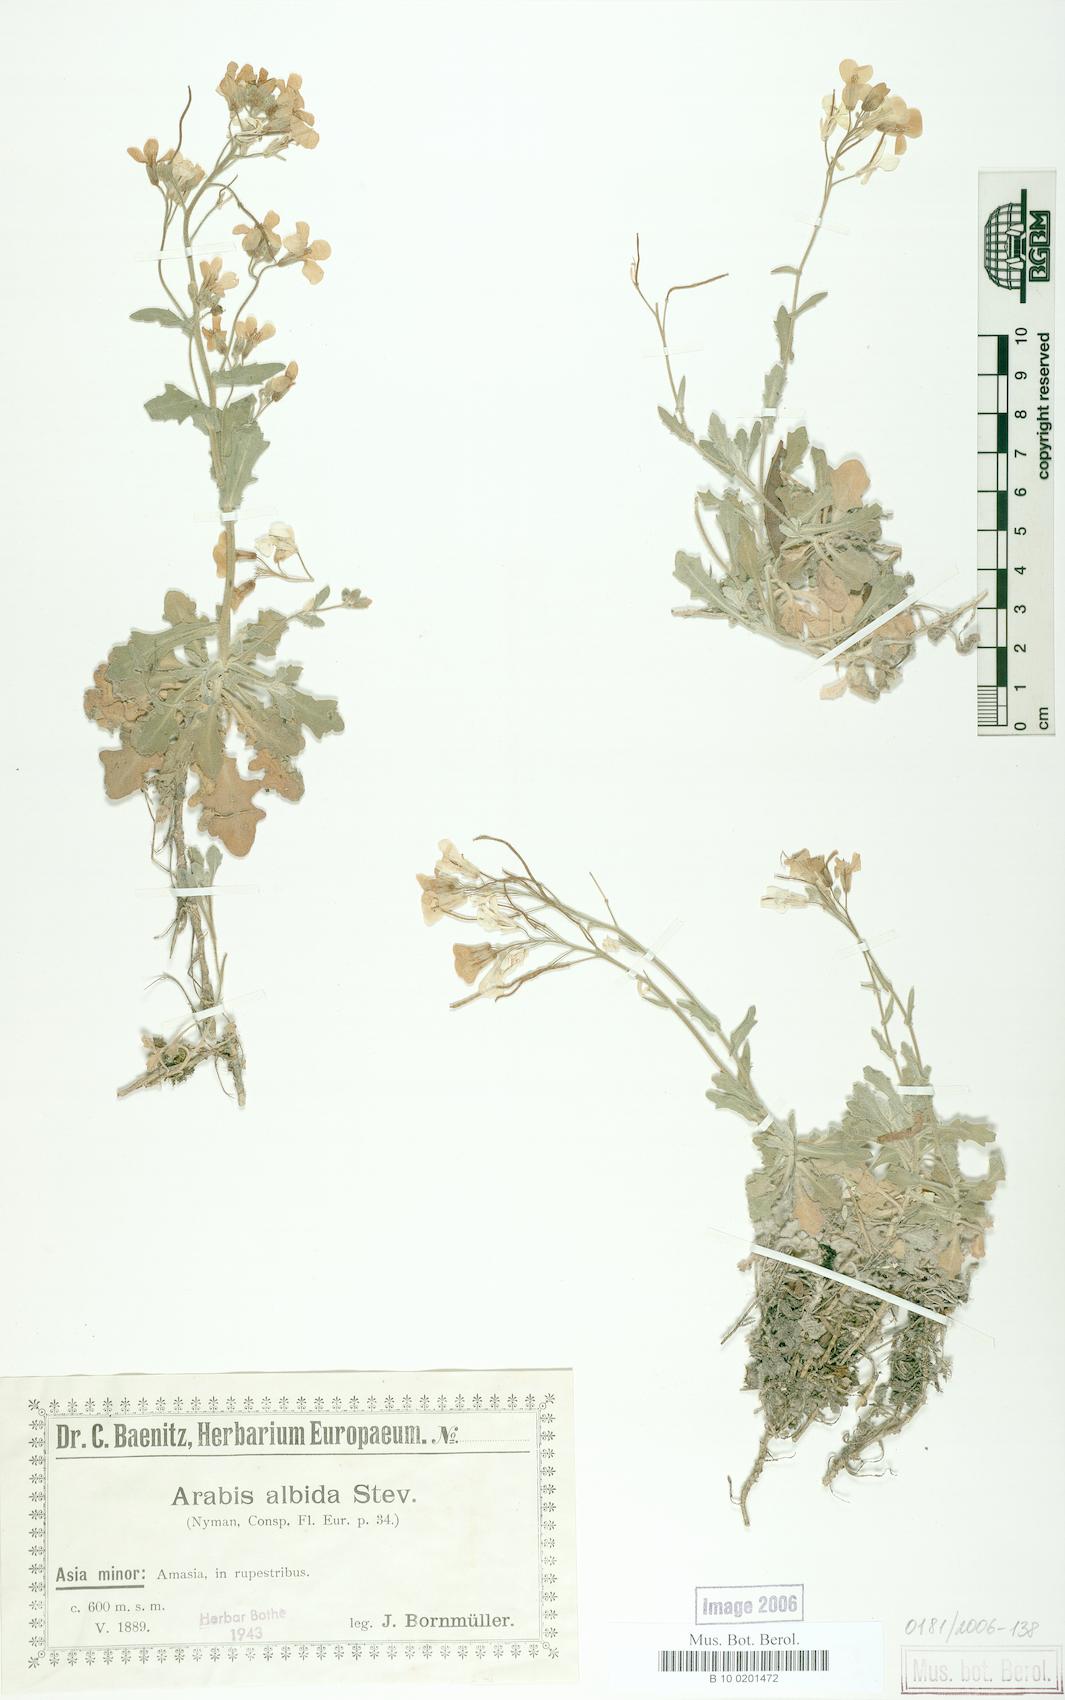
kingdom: Plantae
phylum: Tracheophyta
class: Magnoliopsida
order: Brassicales
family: Brassicaceae
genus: Arabis
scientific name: Arabis alpina
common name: Alpine rock-cress
